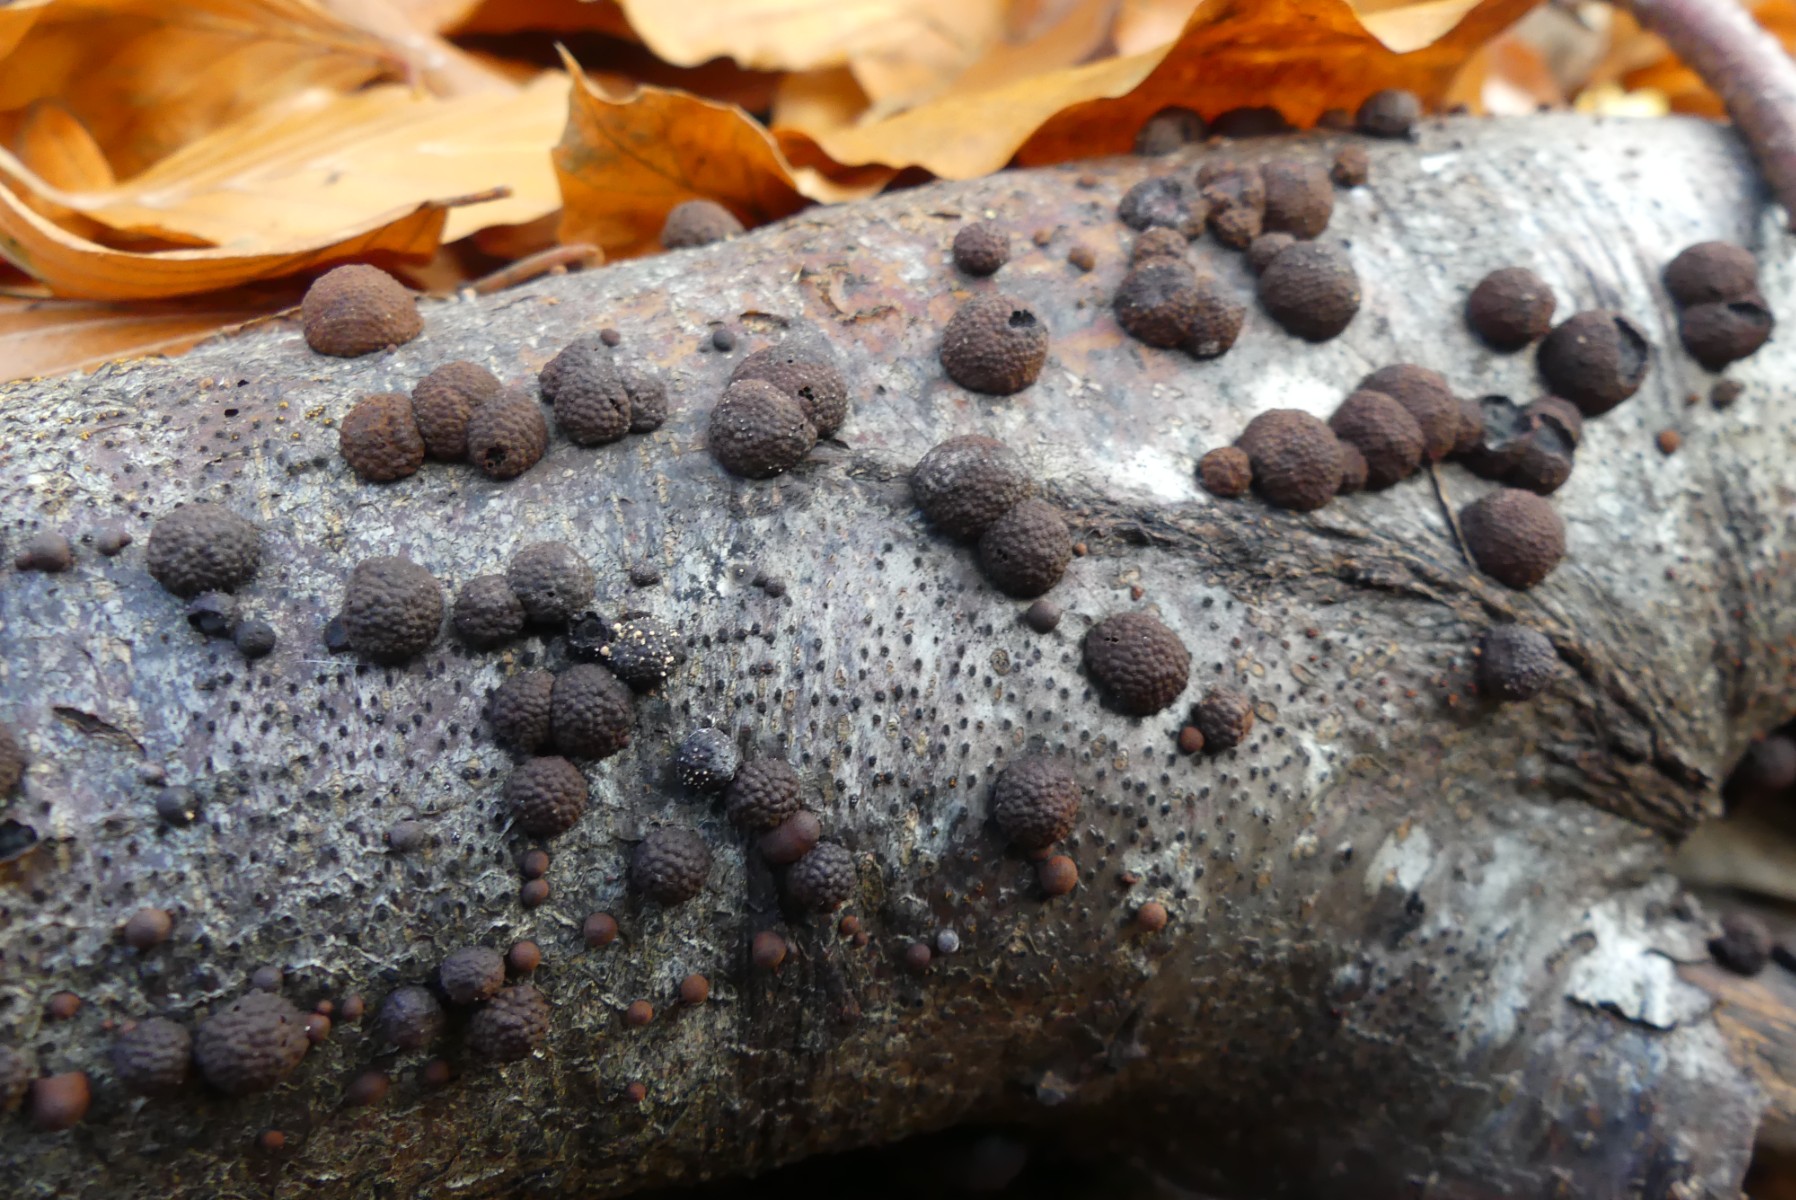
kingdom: Fungi
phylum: Ascomycota
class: Sordariomycetes
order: Xylariales
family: Hypoxylaceae
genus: Hypoxylon
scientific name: Hypoxylon fragiforme
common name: kuljordbær
